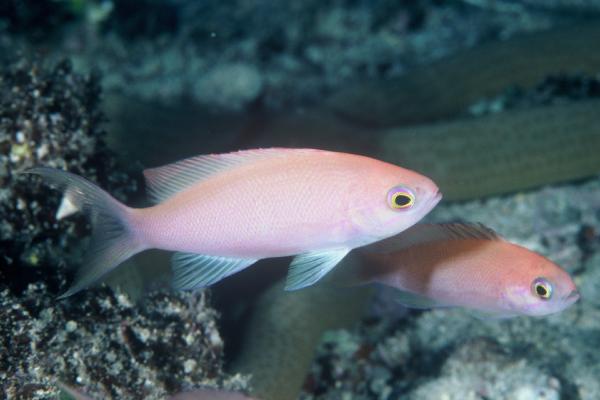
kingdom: Animalia
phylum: Chordata
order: Perciformes
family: Serranidae
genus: Pseudanthias
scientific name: Pseudanthias thompsoni
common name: Fairy bass
